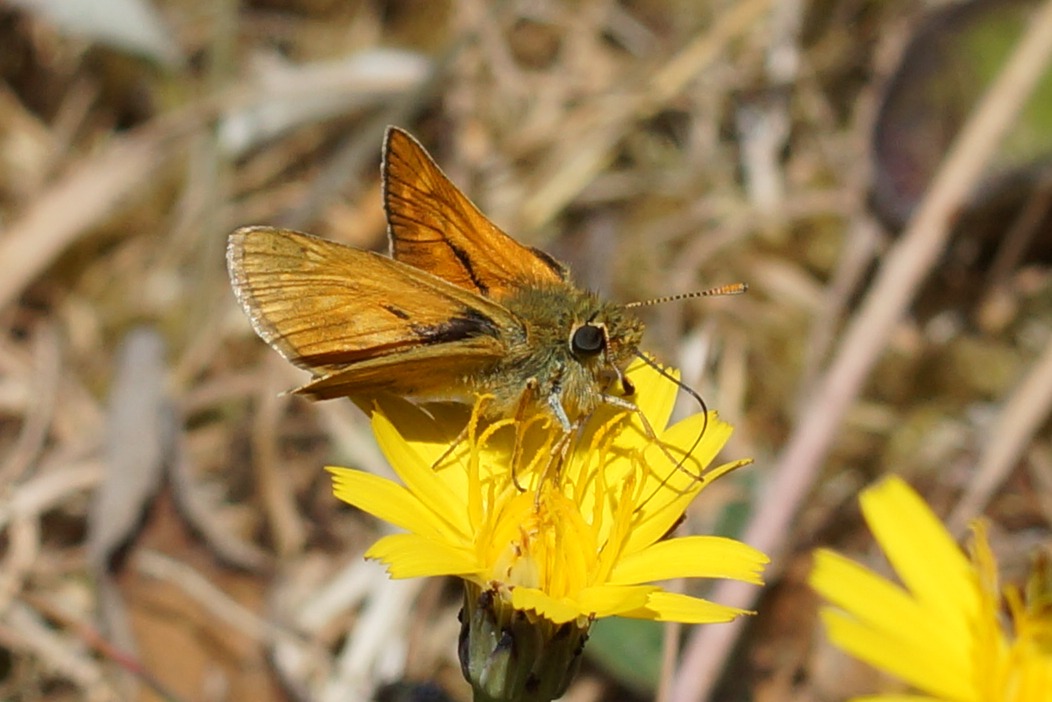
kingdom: Animalia
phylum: Arthropoda
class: Insecta
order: Lepidoptera
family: Hesperiidae
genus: Ochlodes
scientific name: Ochlodes venata
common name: Stor bredpande
